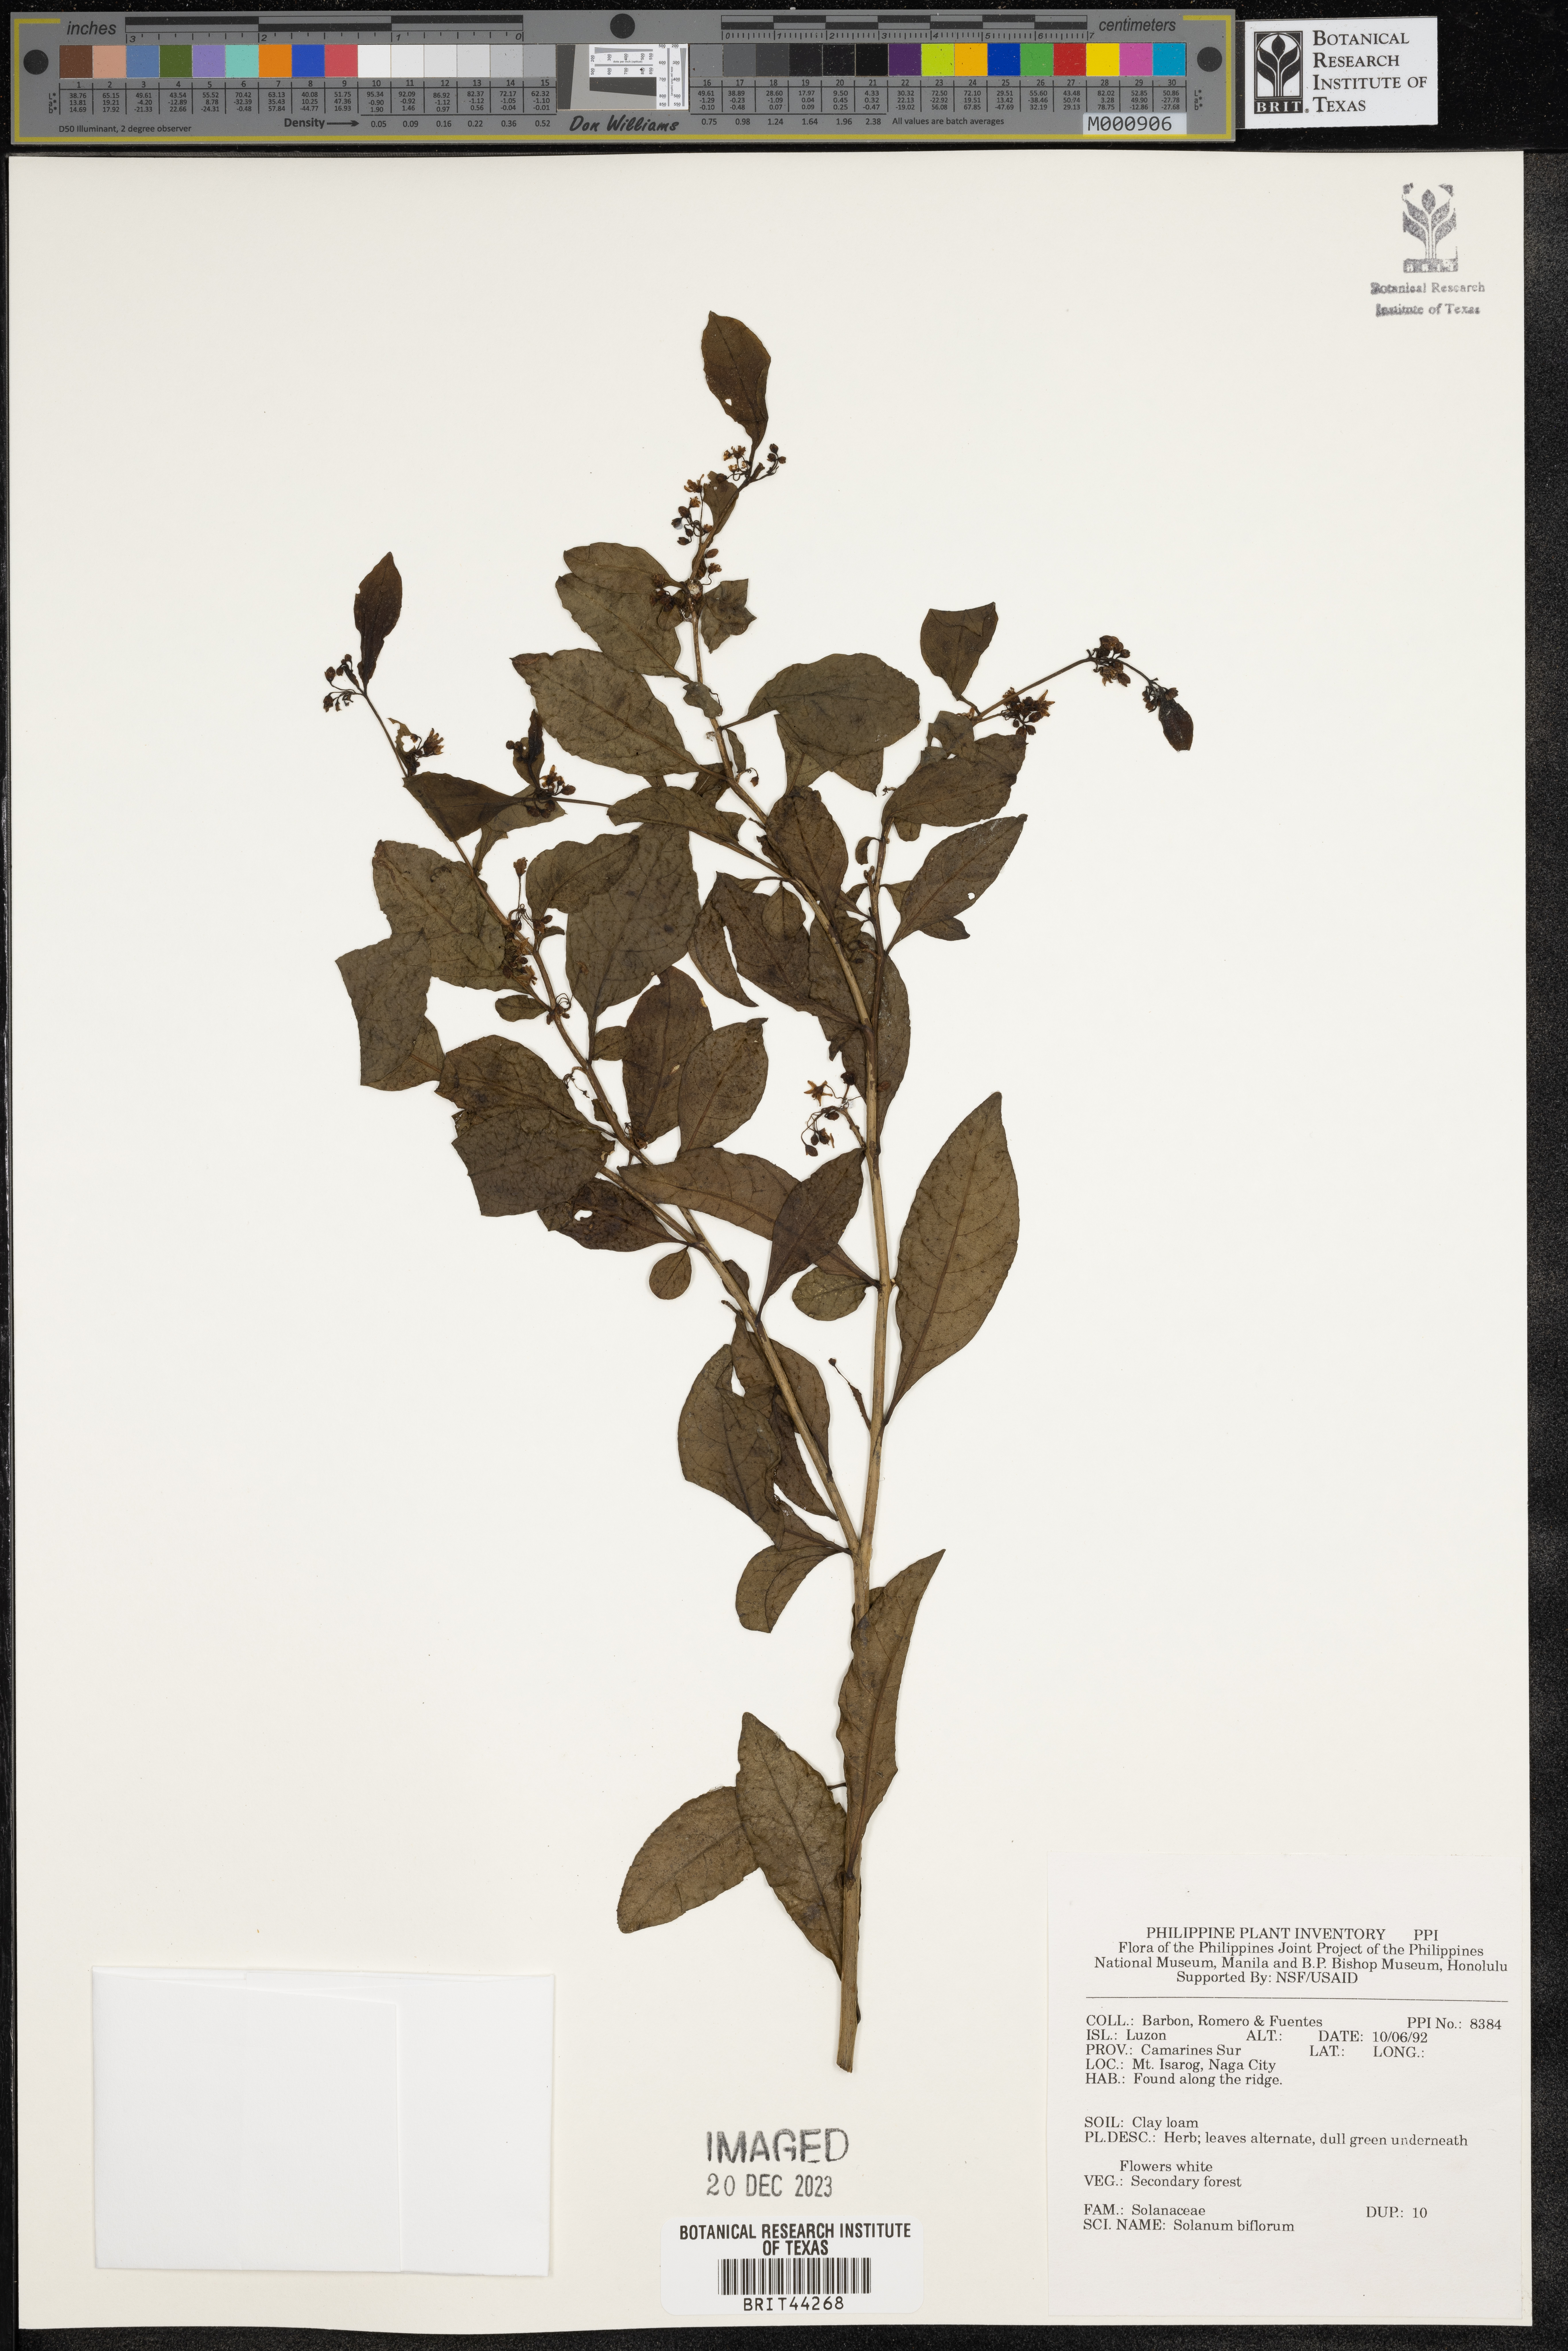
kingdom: Plantae
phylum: Tracheophyta
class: Magnoliopsida
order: Solanales
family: Solanaceae
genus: Lycianthes
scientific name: Lycianthes biflora
